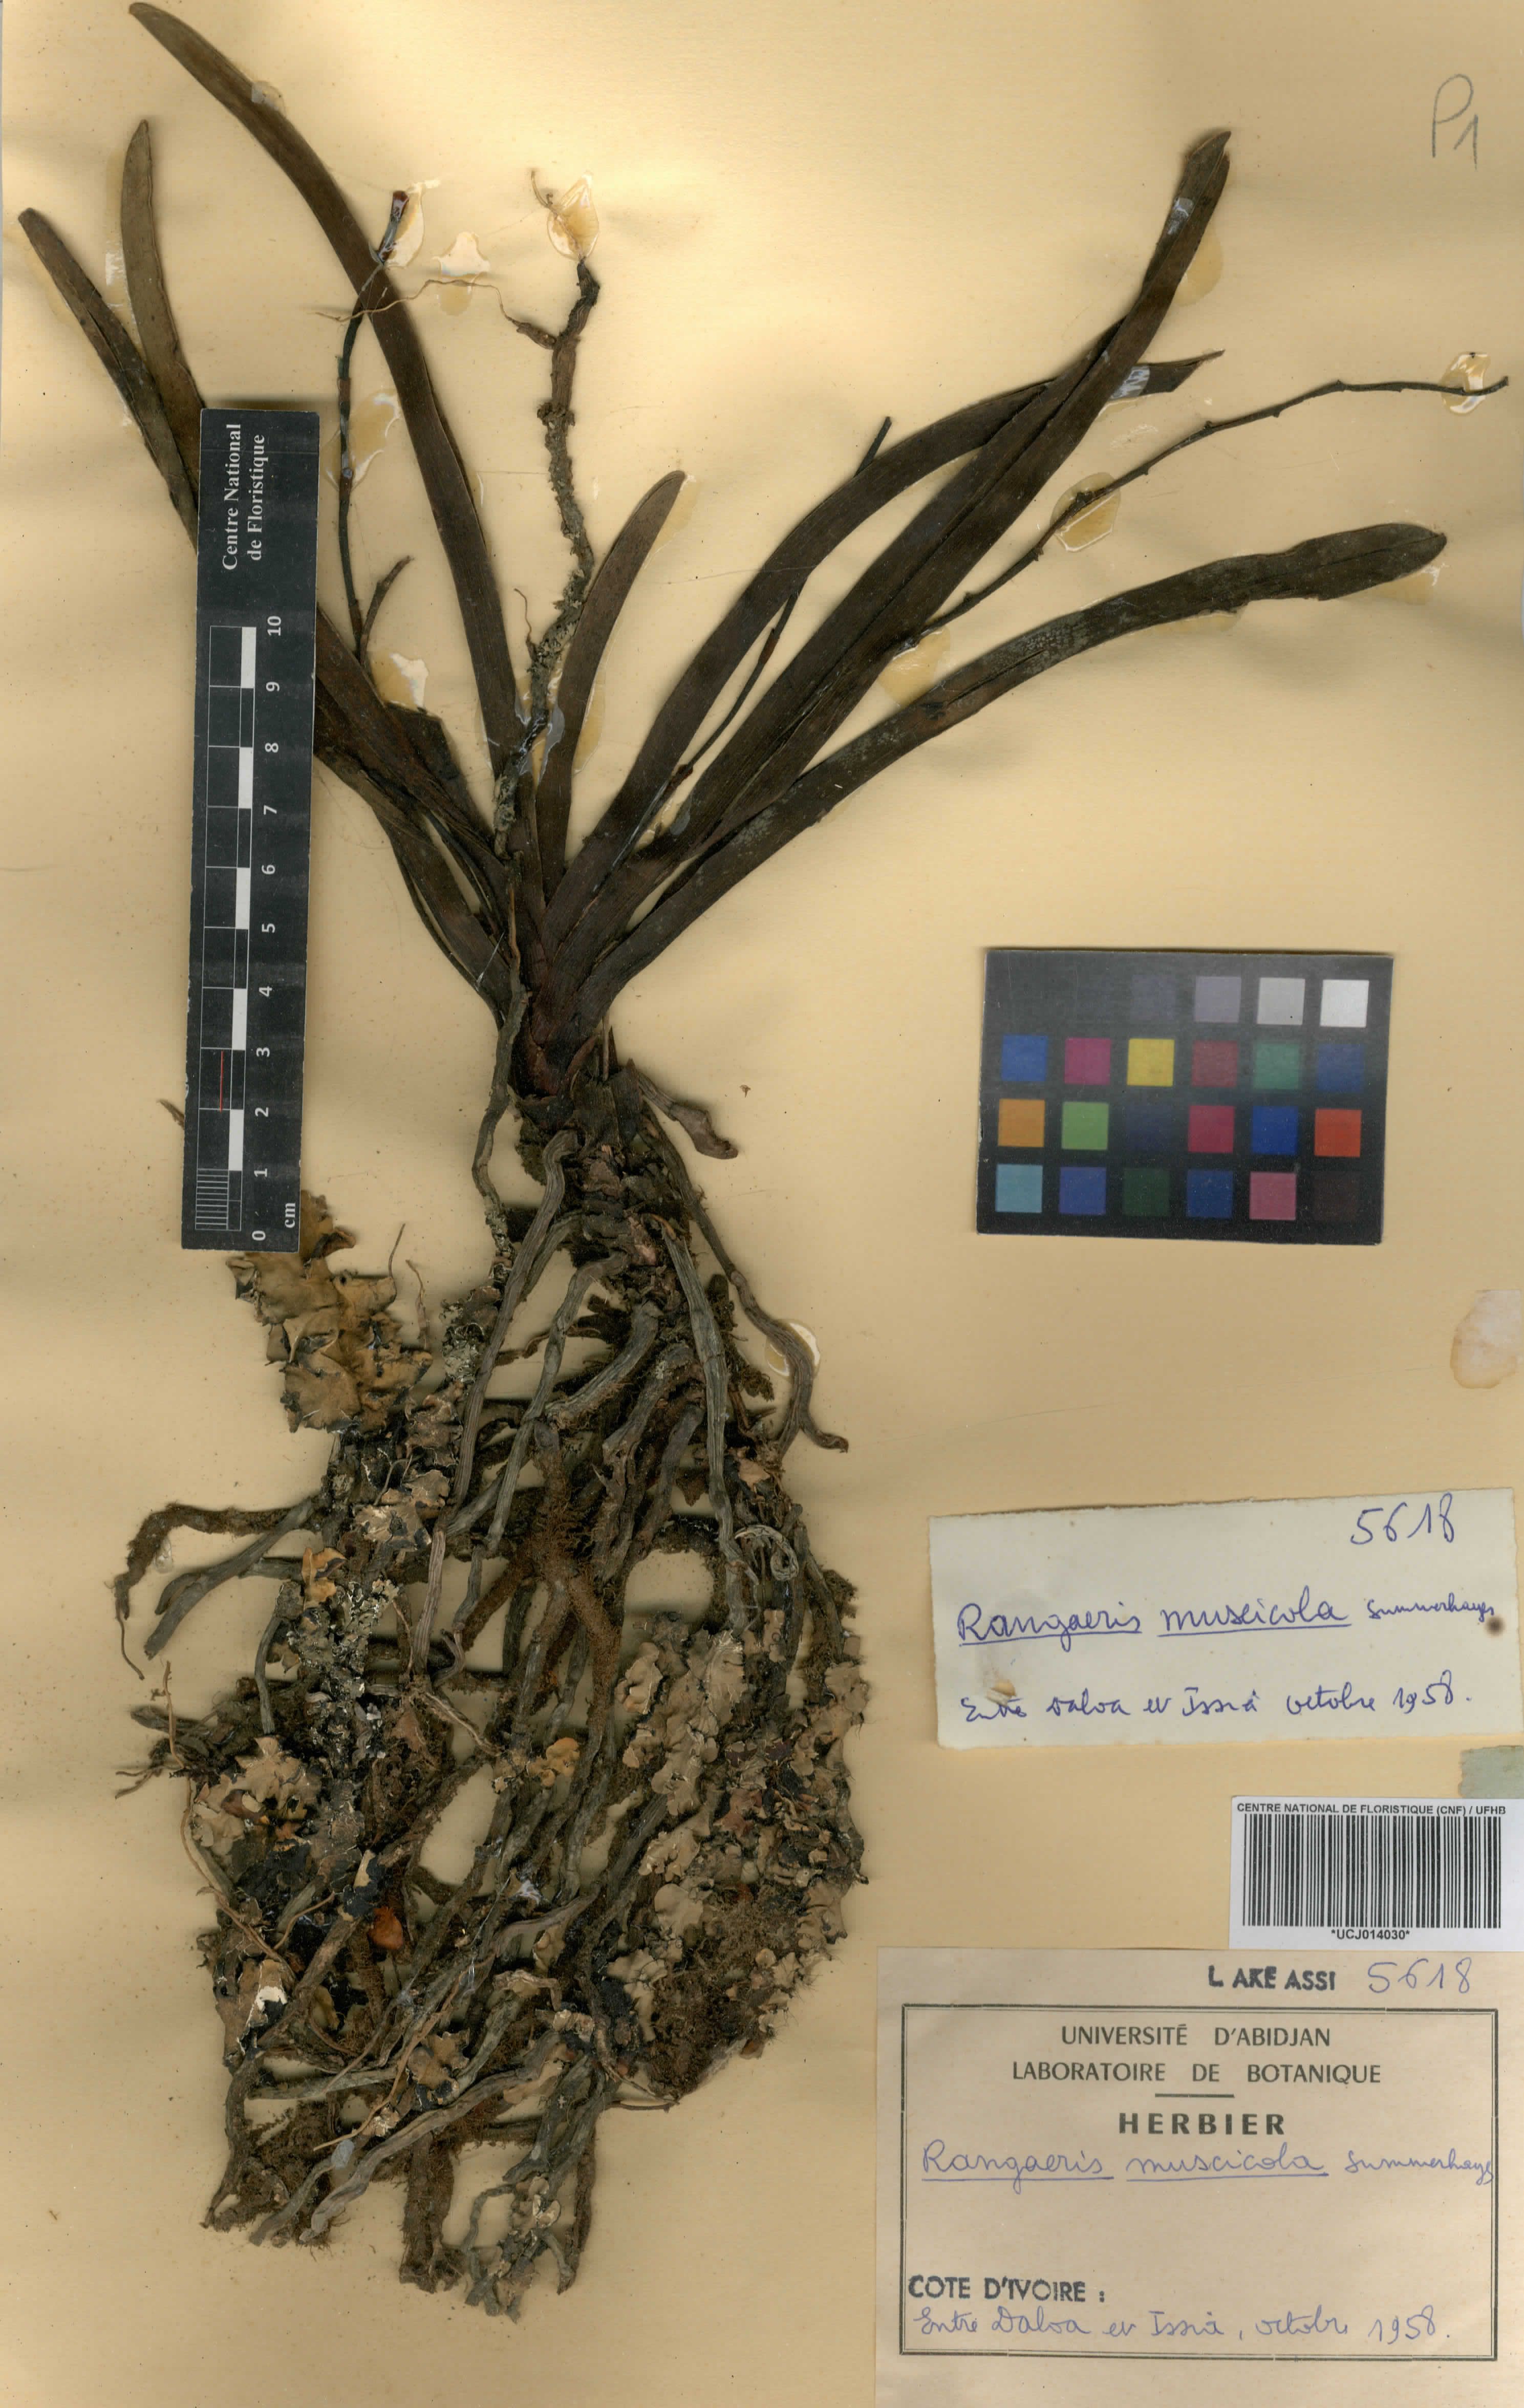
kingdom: Plantae
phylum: Tracheophyta
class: Liliopsida
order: Asparagales
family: Orchidaceae
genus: Rangaeris
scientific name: Rangaeris muscicola
